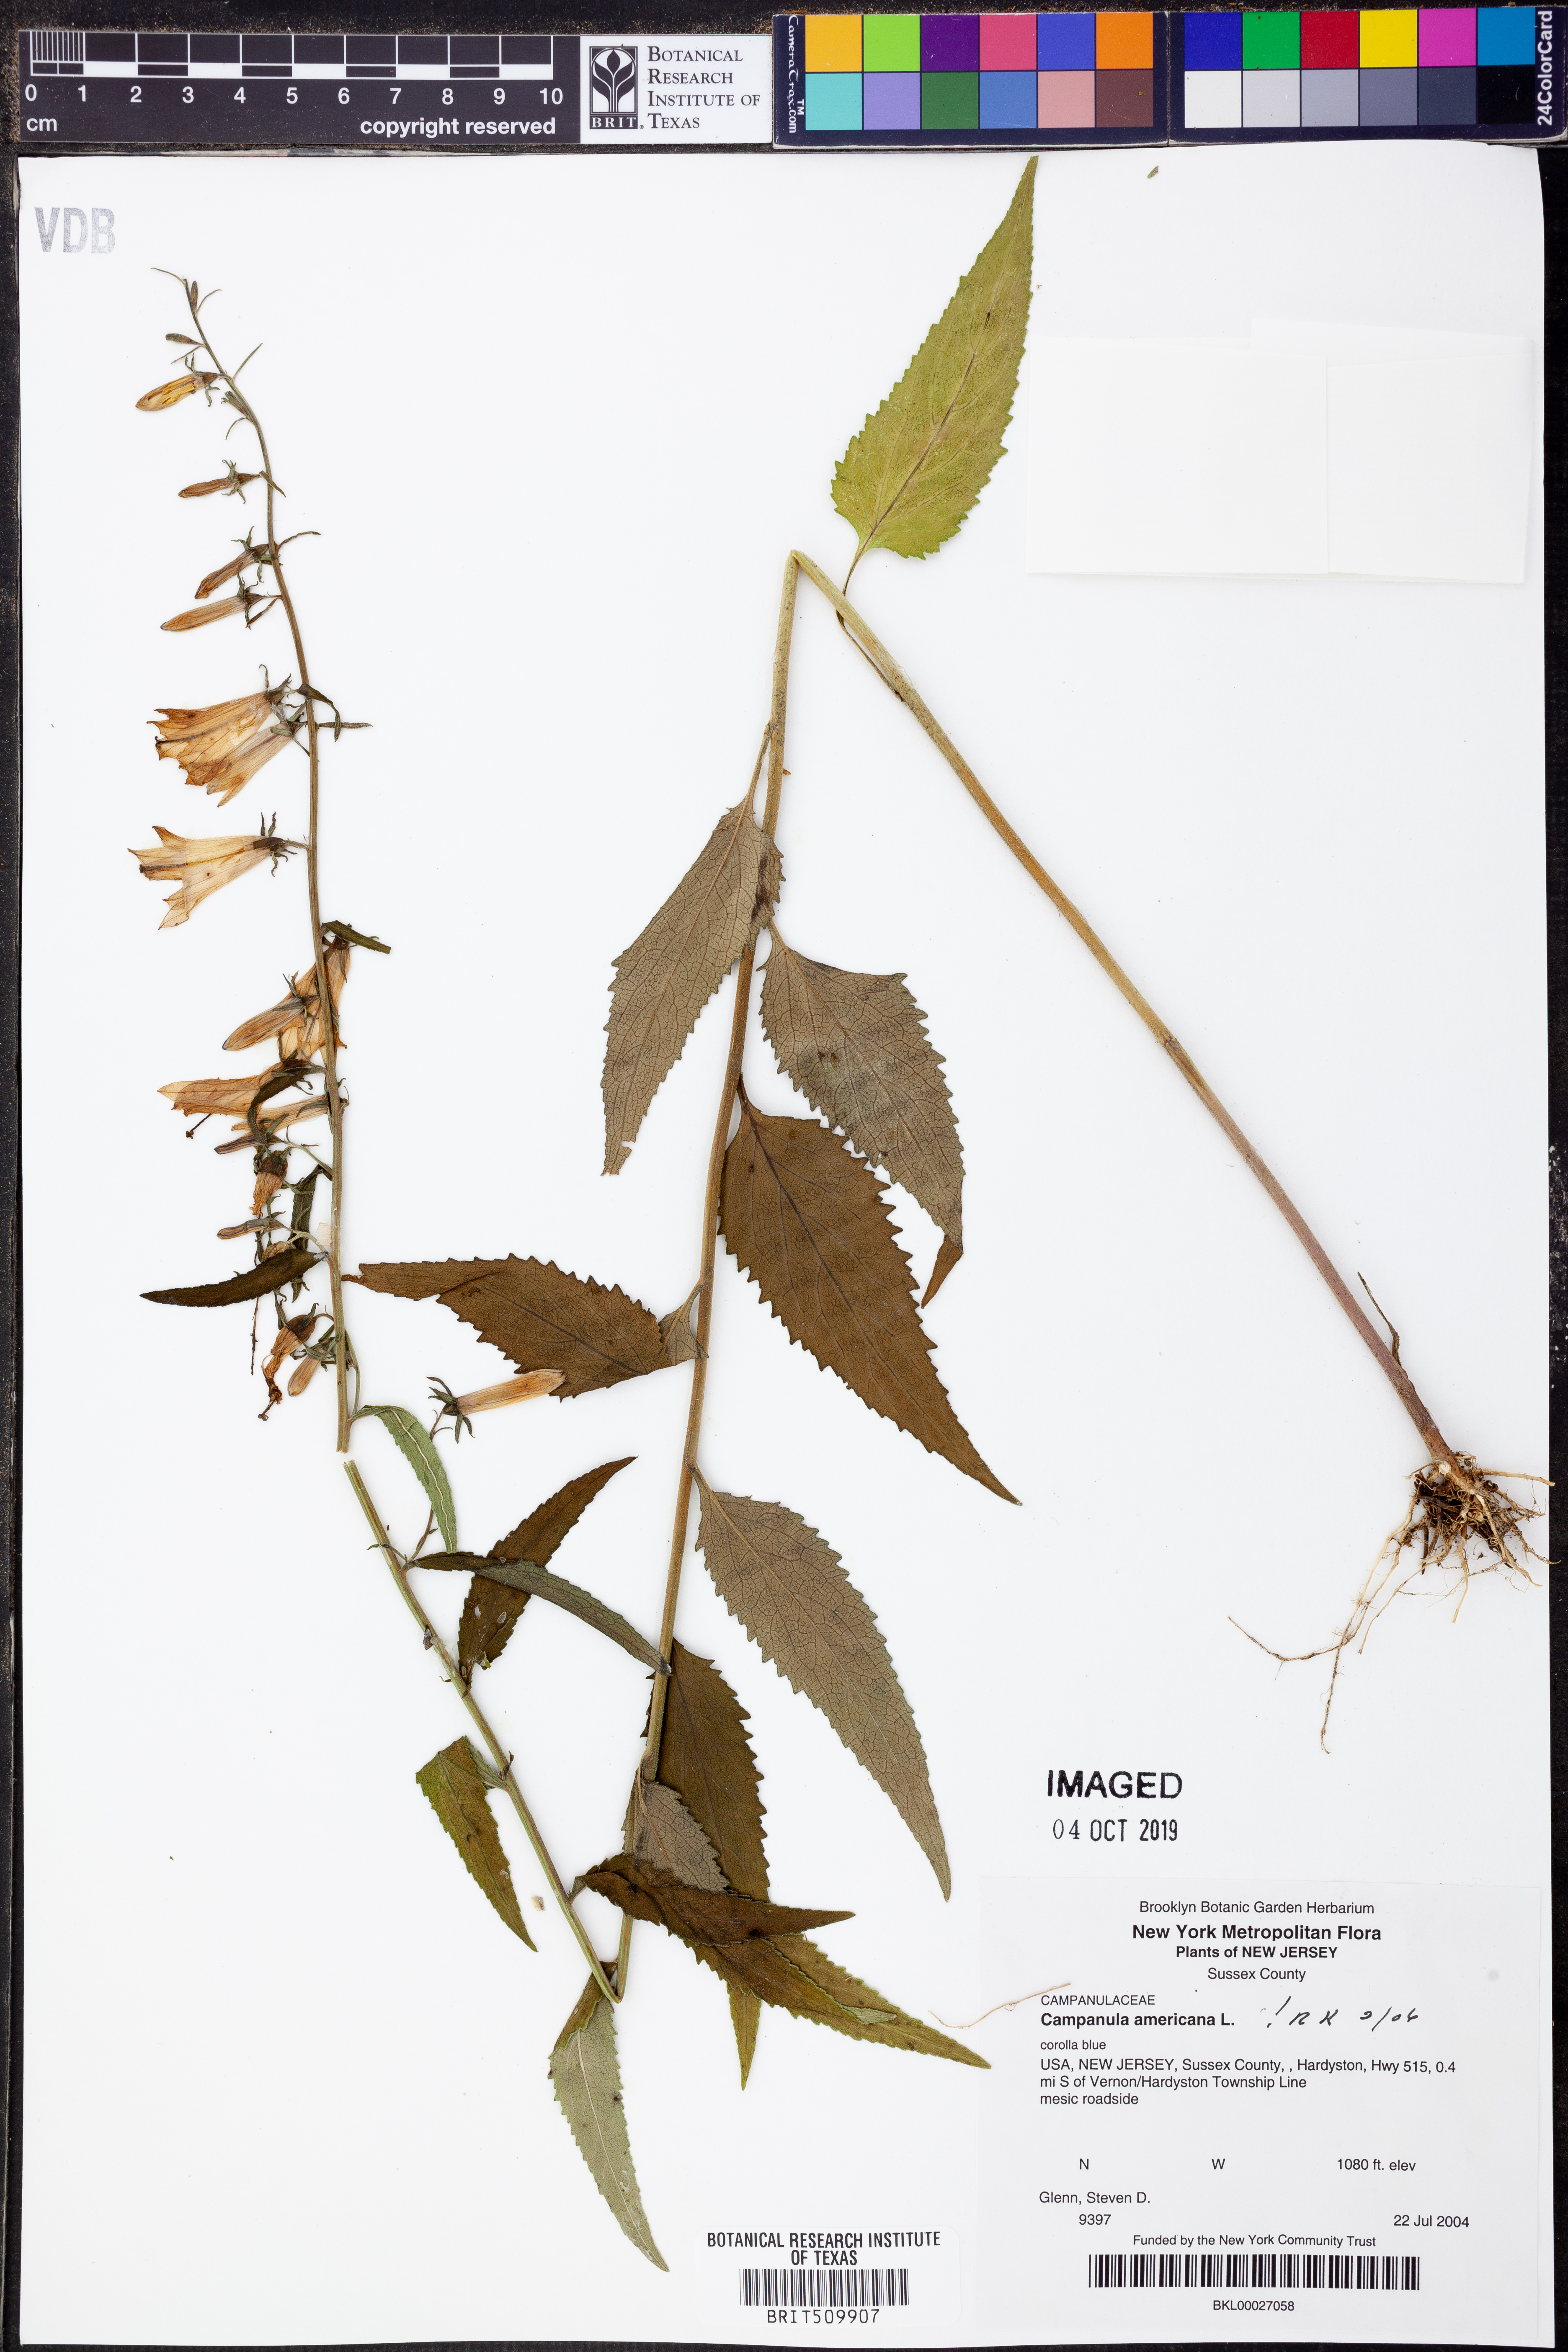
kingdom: Plantae
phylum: Tracheophyta
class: Magnoliopsida
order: Asterales
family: Campanulaceae
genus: Campanula
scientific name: Campanula americana
